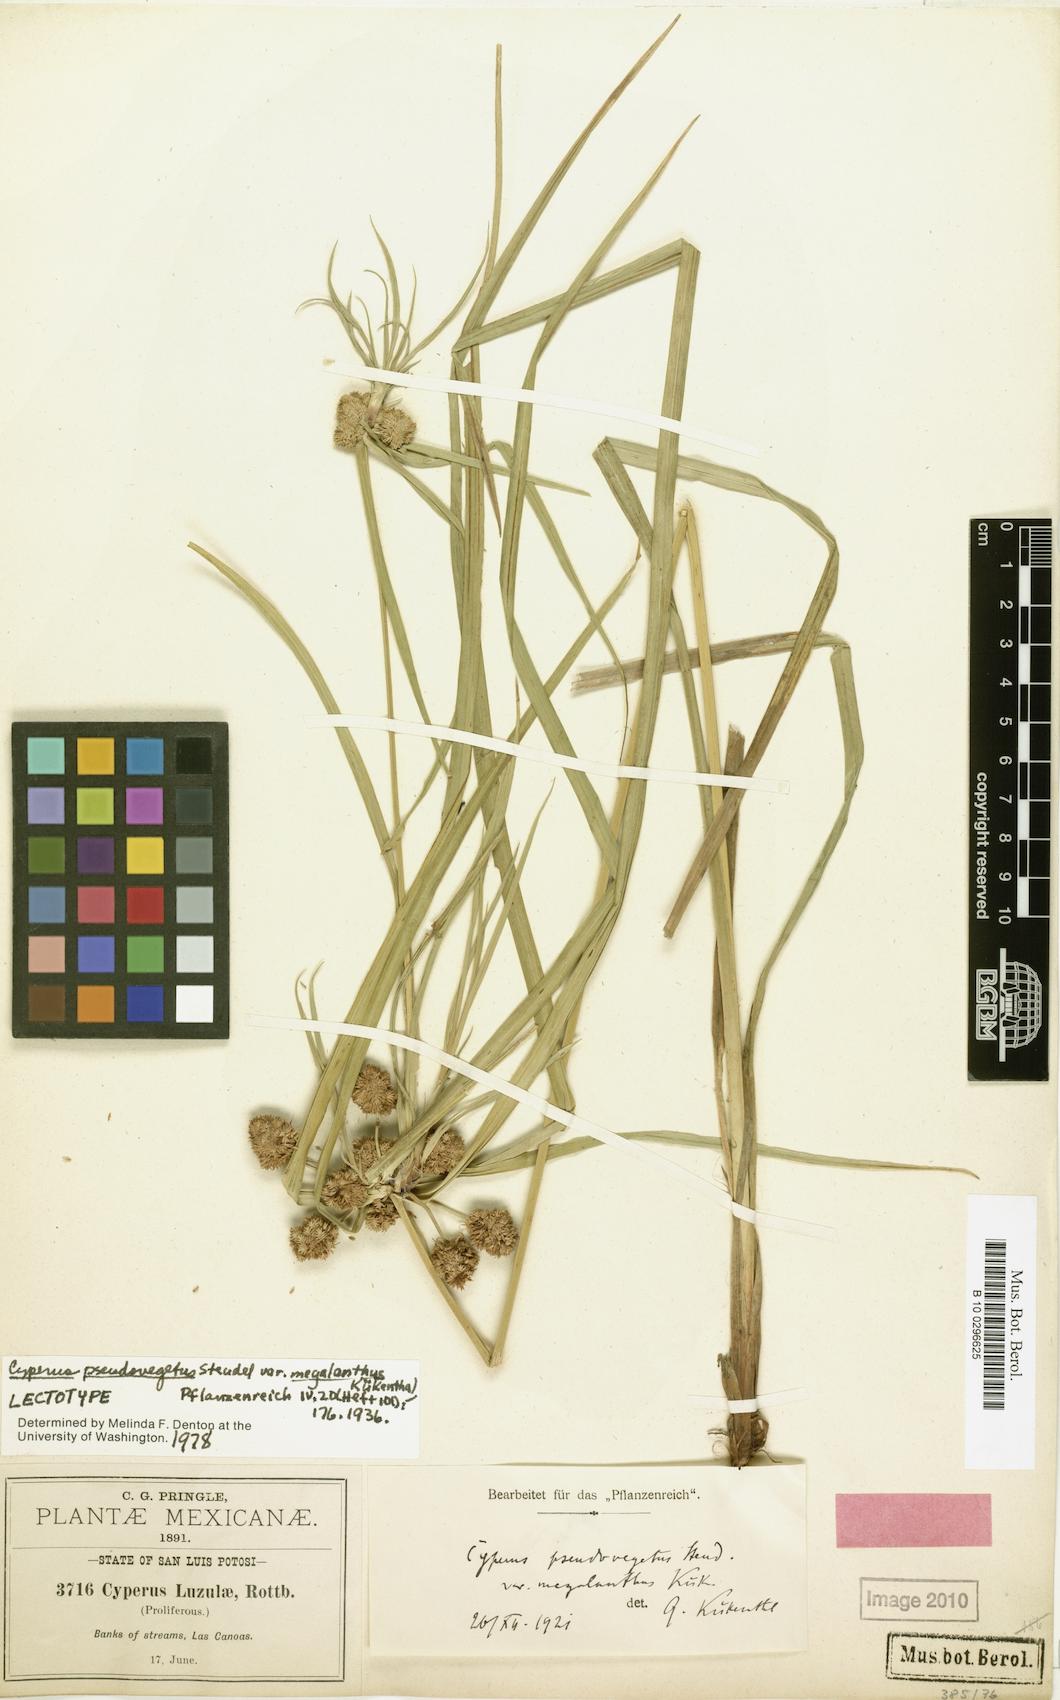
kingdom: Plantae
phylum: Tracheophyta
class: Liliopsida
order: Poales
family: Cyperaceae
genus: Cyperus
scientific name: Cyperus megalanthus
